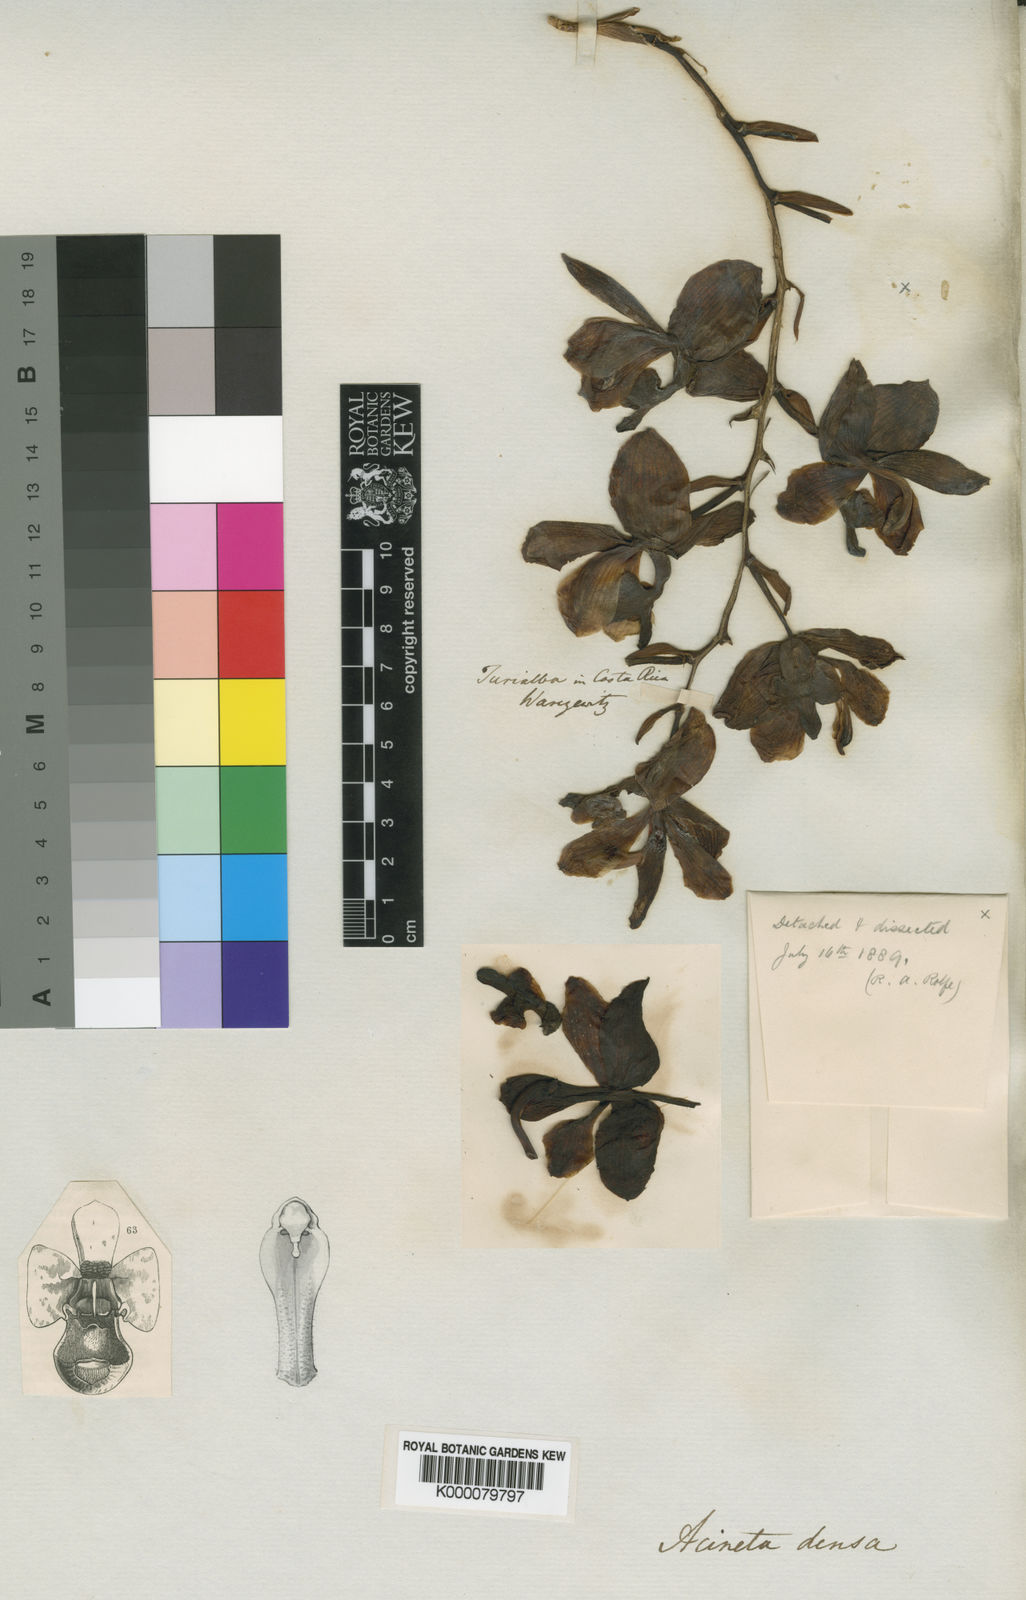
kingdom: Plantae
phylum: Tracheophyta
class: Liliopsida
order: Asparagales
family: Orchidaceae
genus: Acineta
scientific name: Acineta densa
